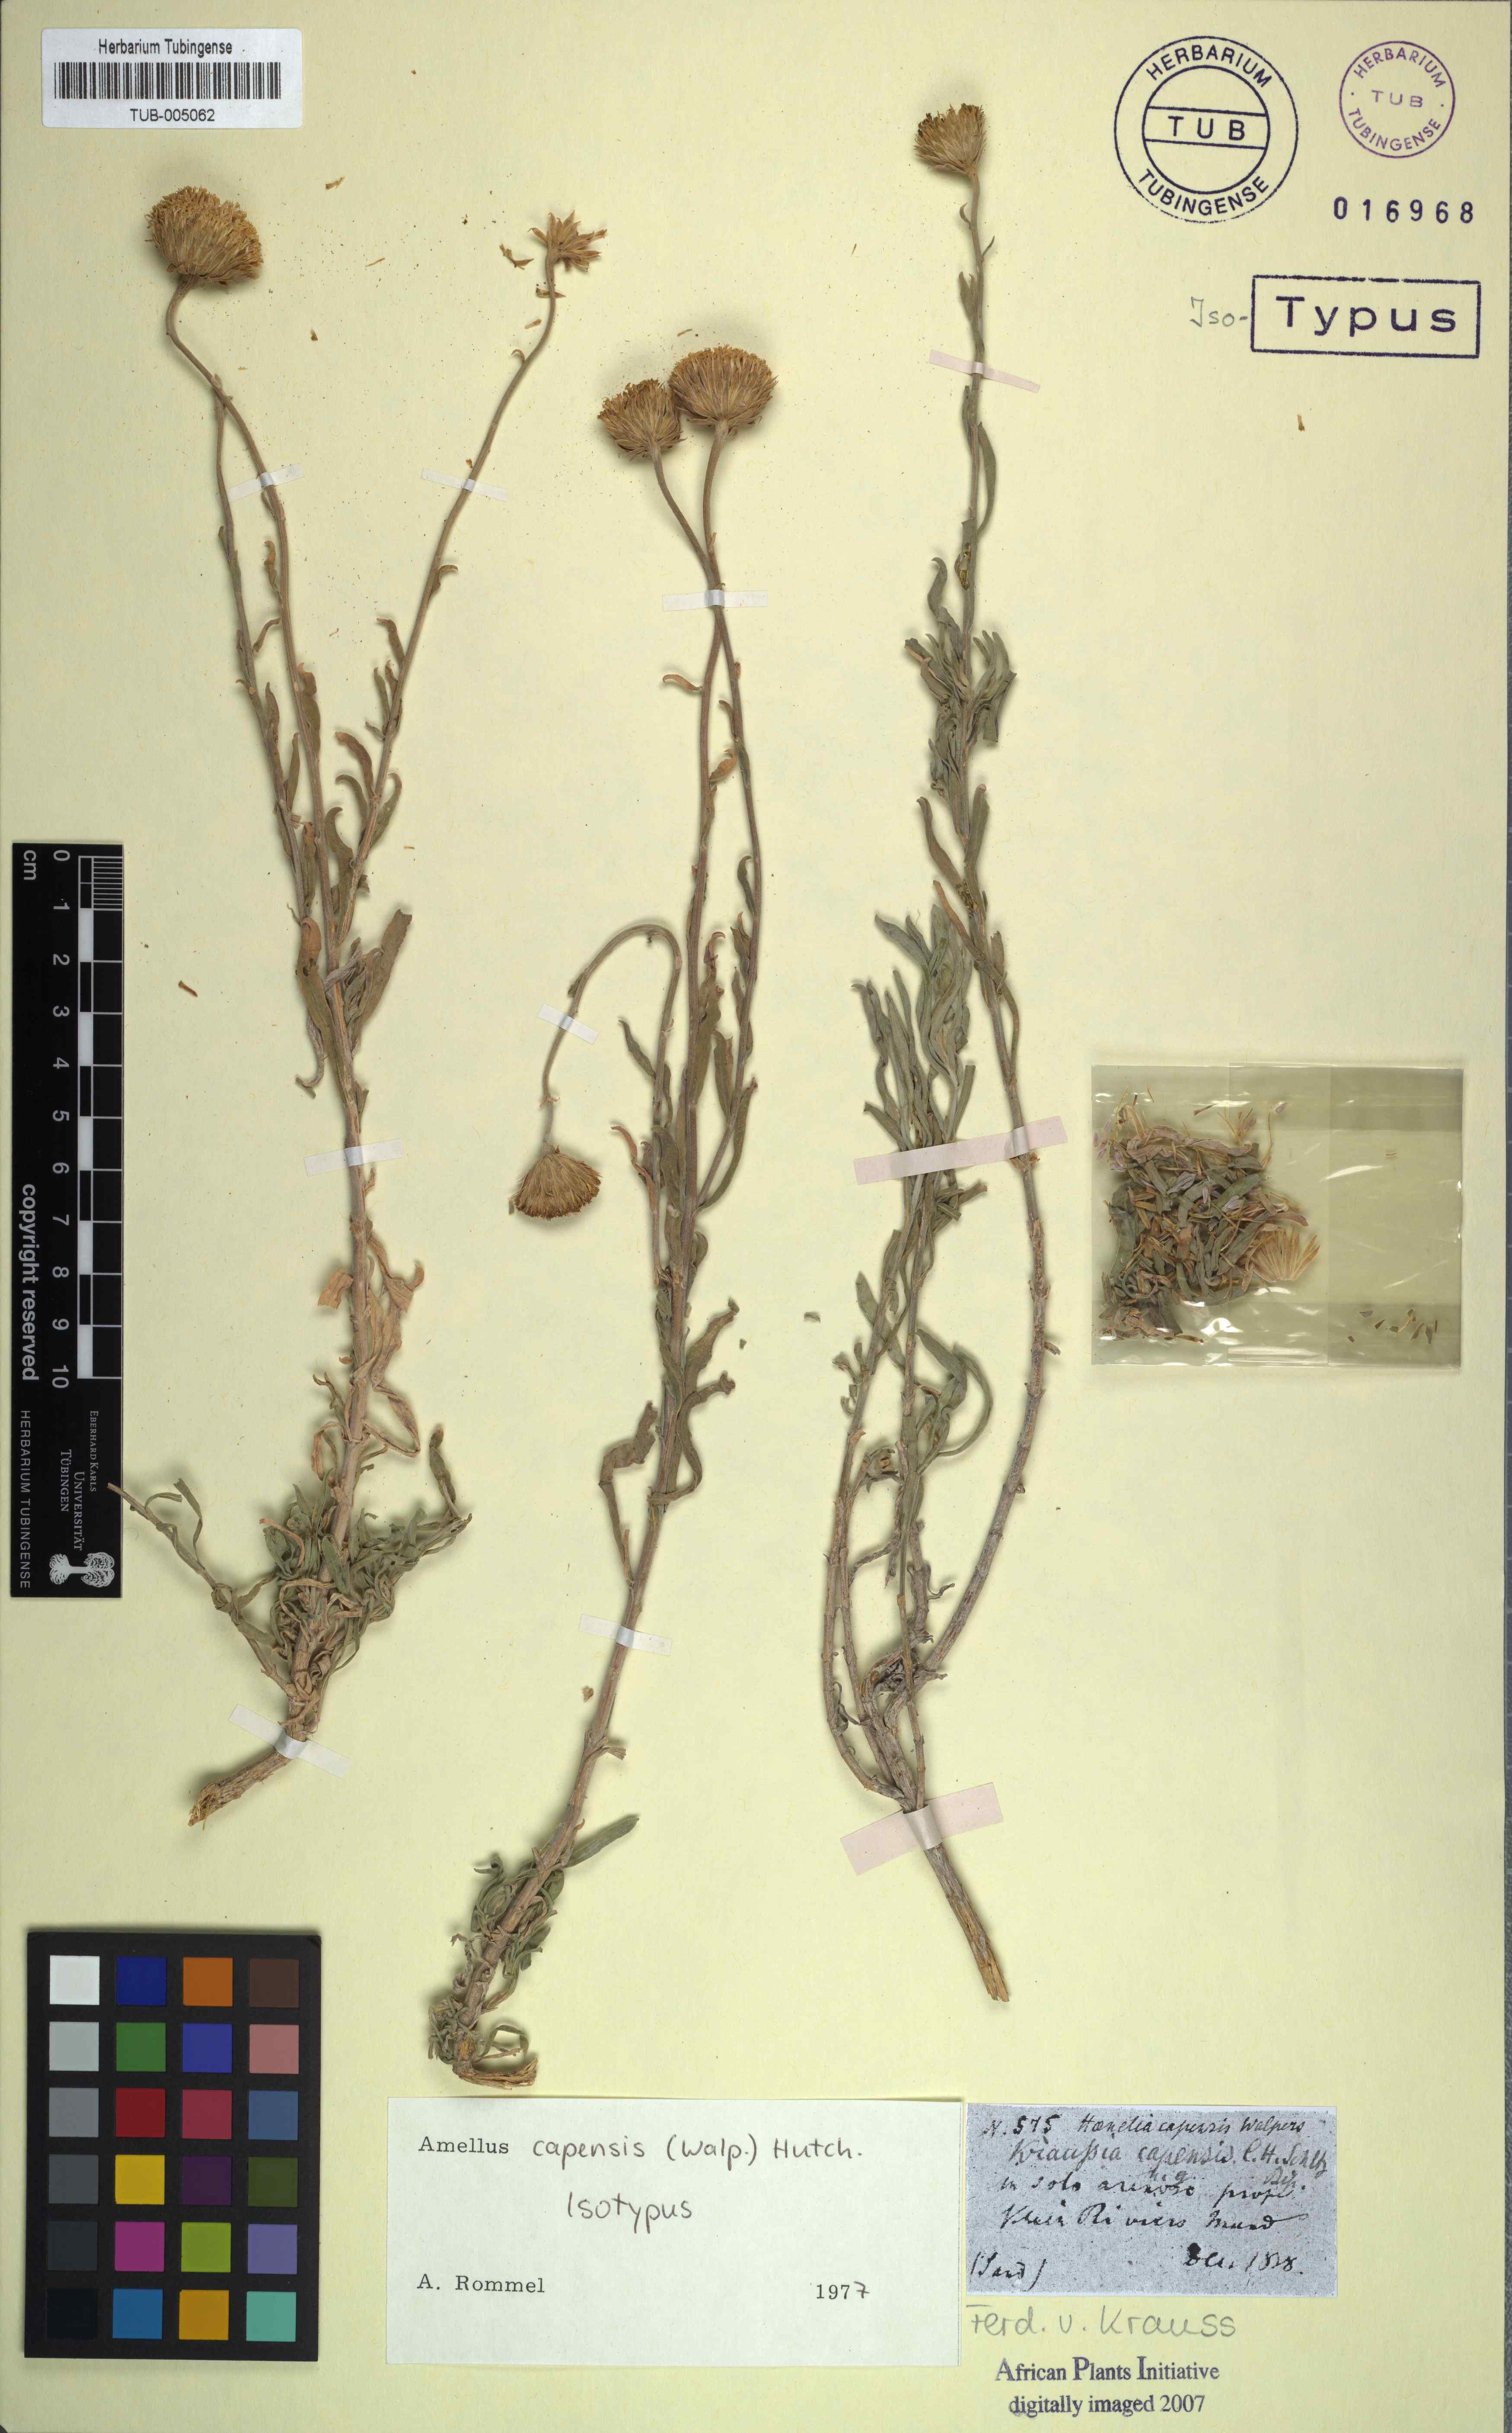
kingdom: Plantae
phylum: Tracheophyta
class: Magnoliopsida
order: Asterales
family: Asteraceae
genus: Amellus
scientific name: Amellus capensis
